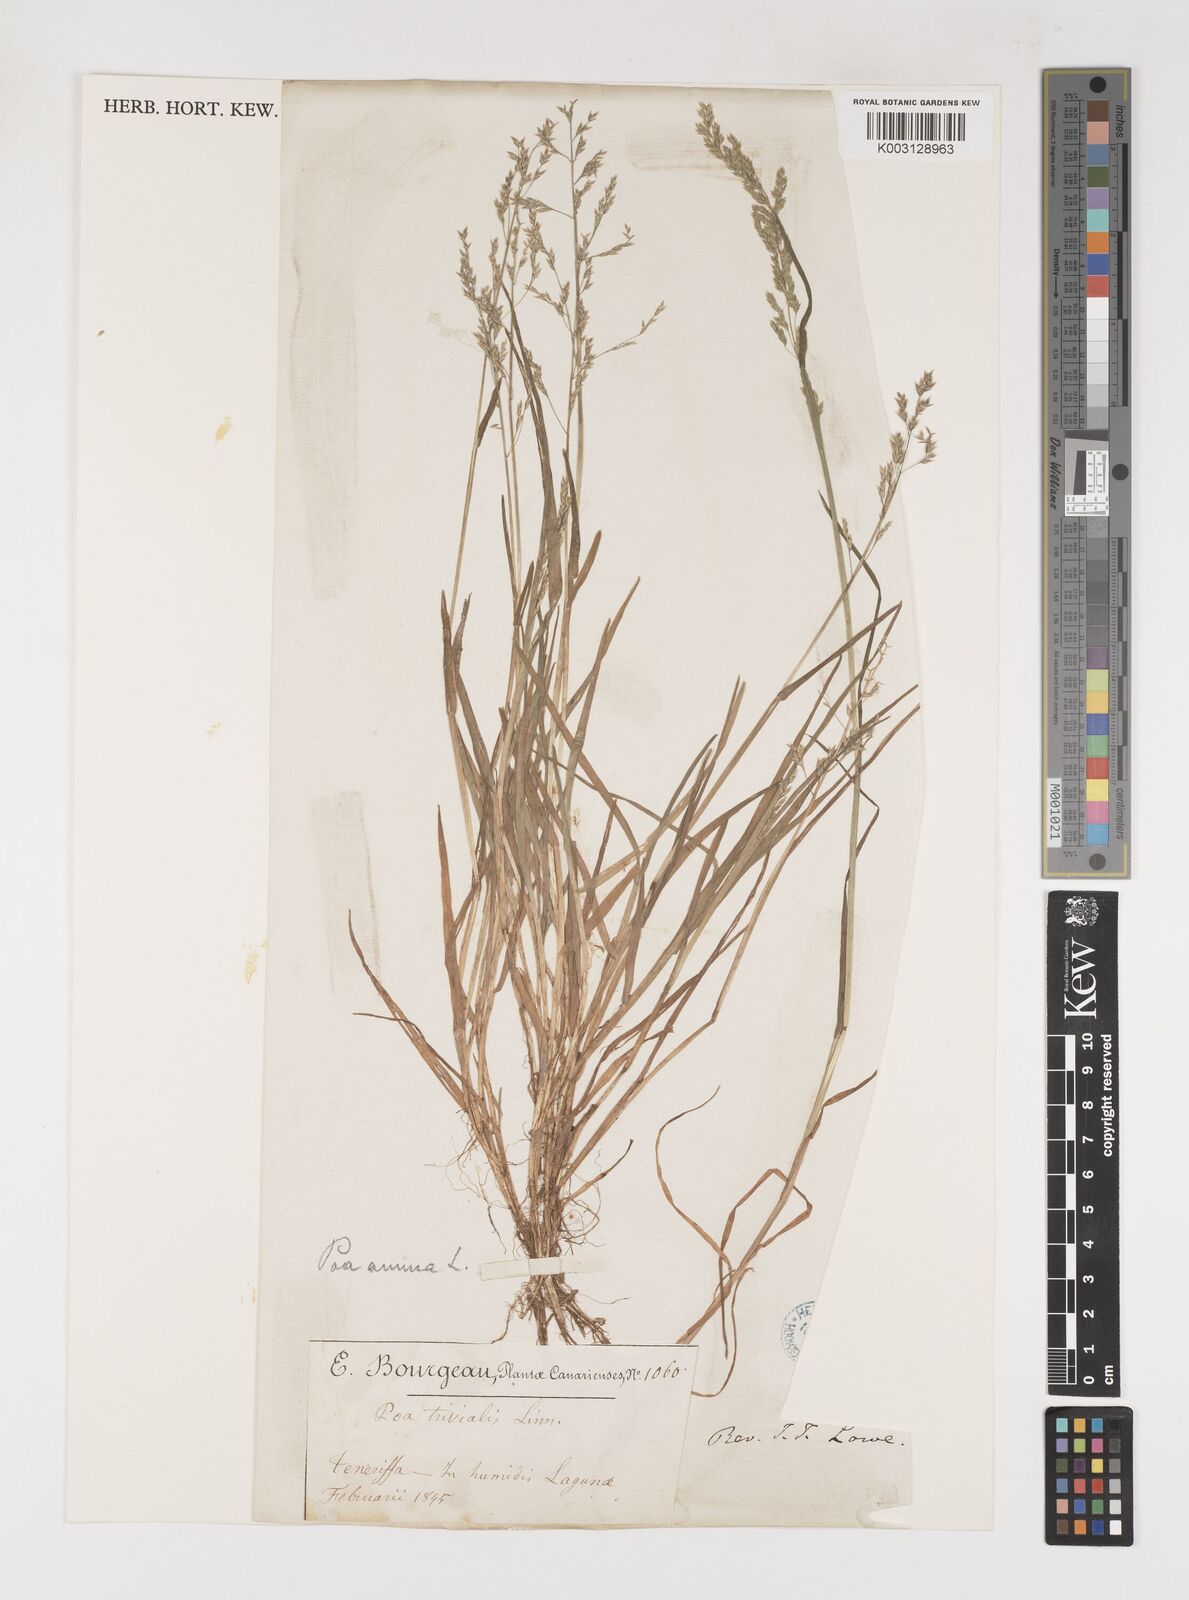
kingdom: Plantae
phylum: Tracheophyta
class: Liliopsida
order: Poales
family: Poaceae
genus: Poa
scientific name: Poa annua
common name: Annual bluegrass
